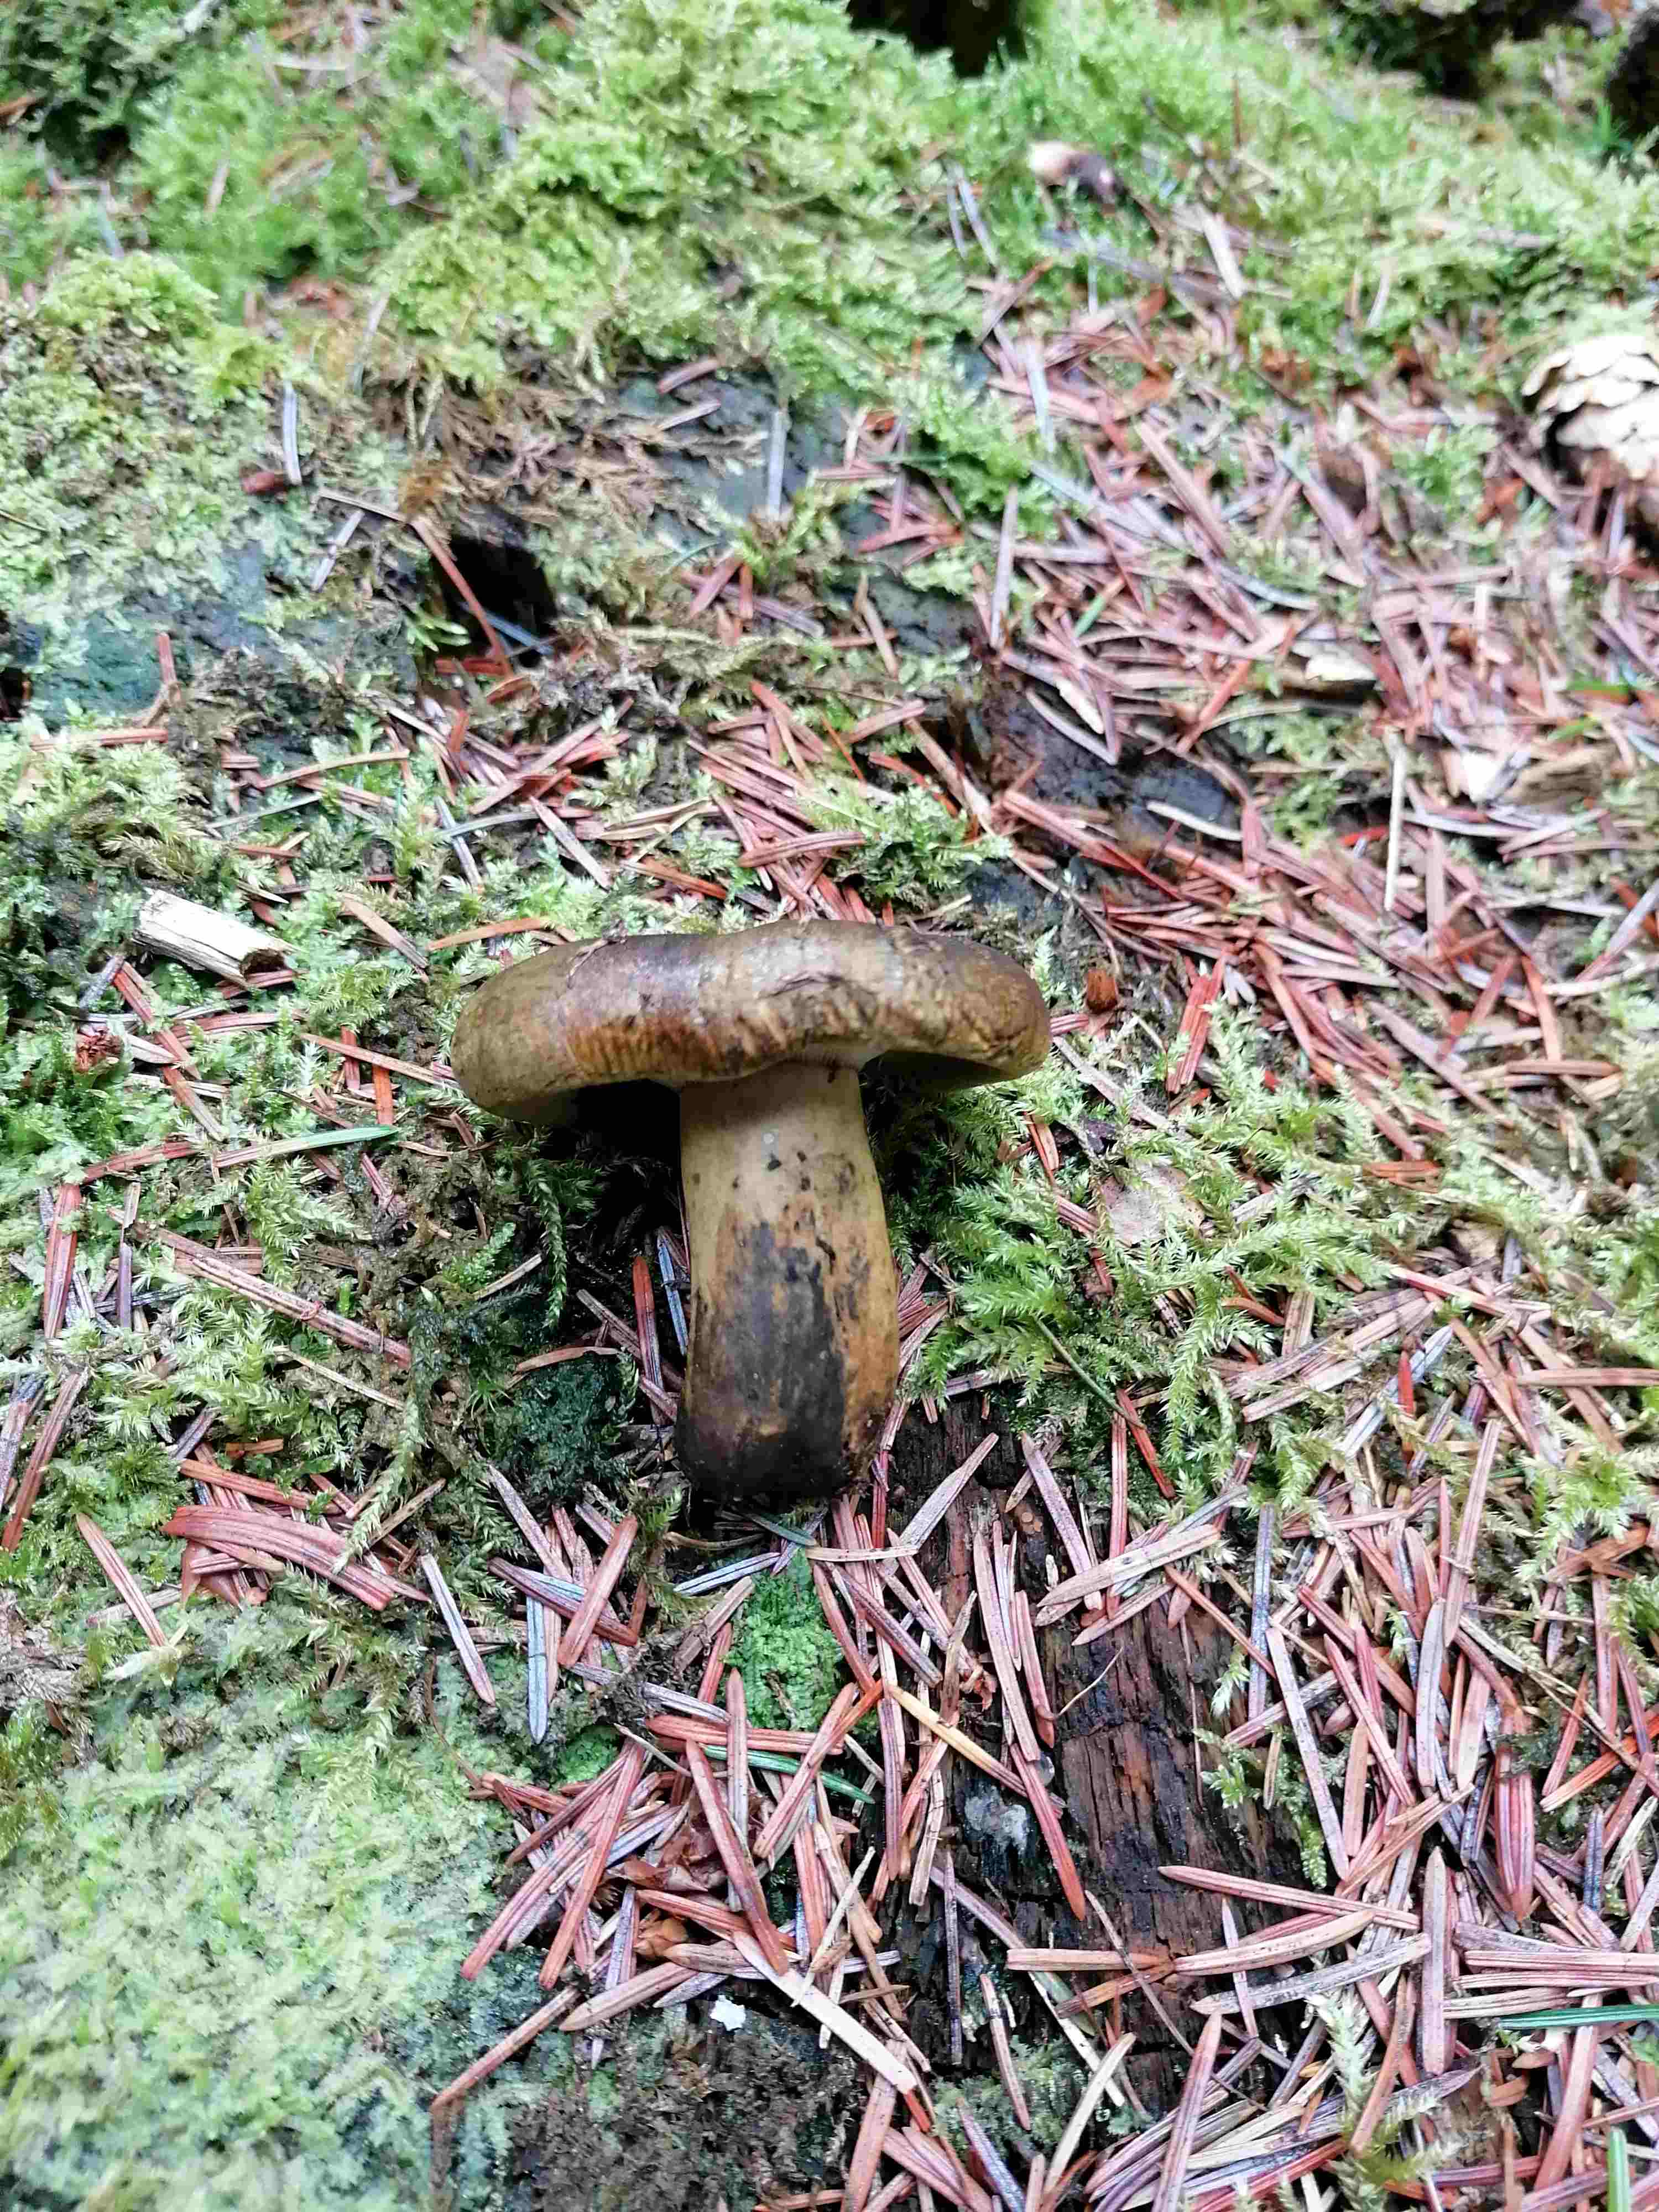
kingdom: Fungi
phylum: Basidiomycota
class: Agaricomycetes
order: Russulales
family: Russulaceae
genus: Lactarius
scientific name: Lactarius necator
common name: manddraber-mælkehat
